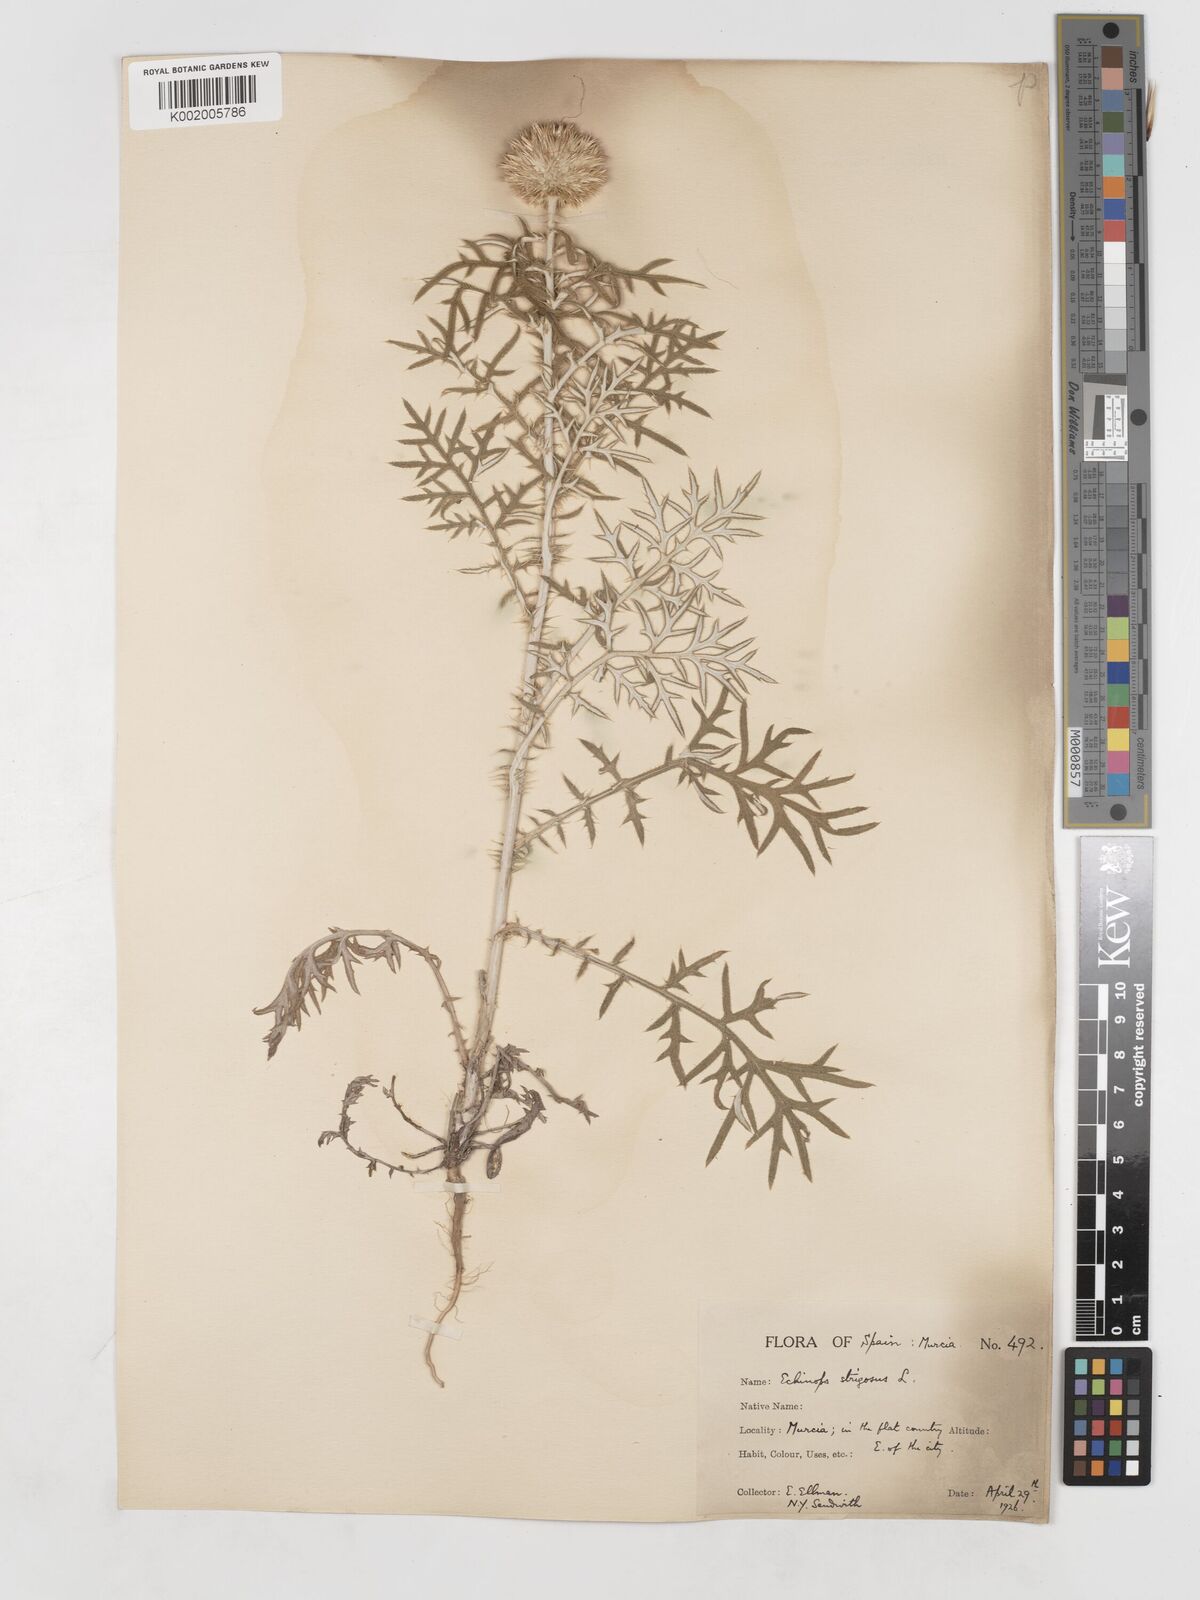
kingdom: Plantae
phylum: Tracheophyta
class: Magnoliopsida
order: Asterales
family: Asteraceae
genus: Echinops
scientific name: Echinops strigosus
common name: Rough-leaf globe thistle
